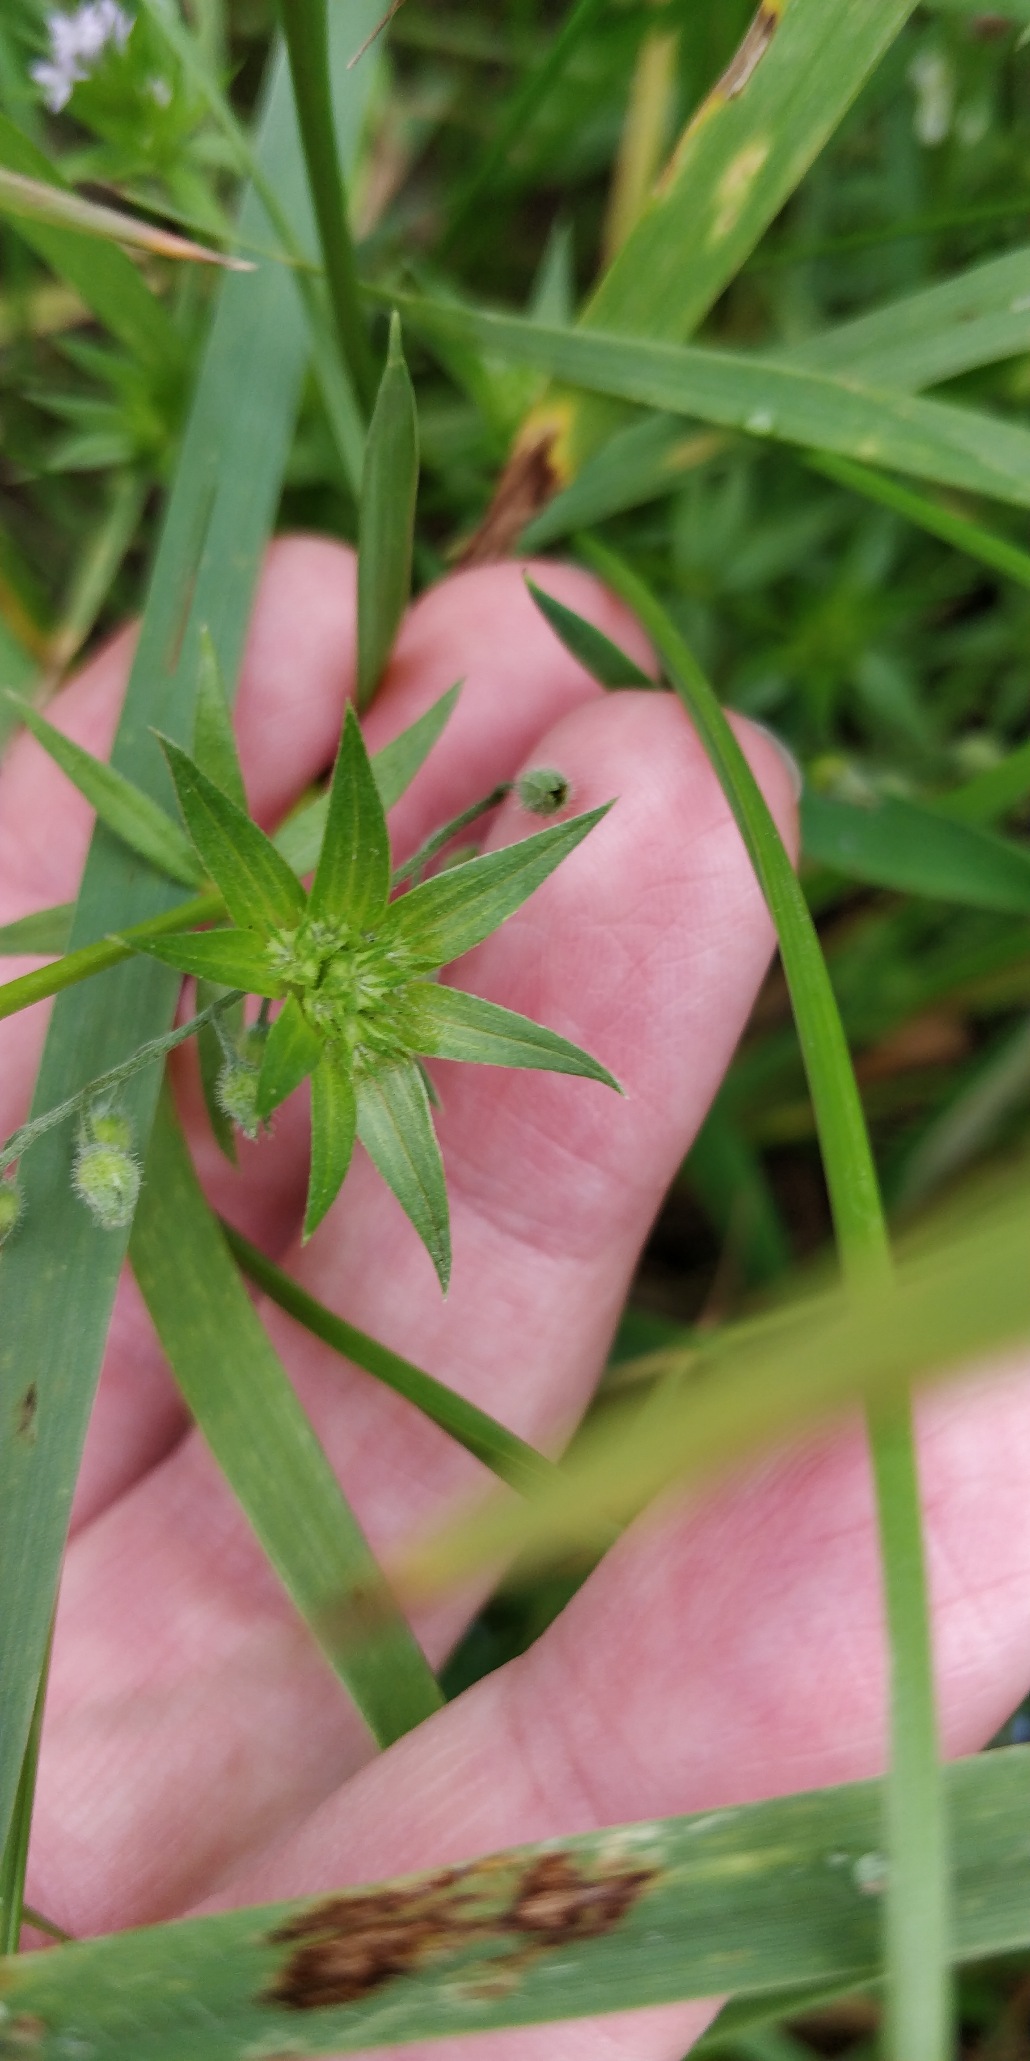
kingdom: Plantae
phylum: Tracheophyta
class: Magnoliopsida
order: Gentianales
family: Rubiaceae
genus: Sherardia
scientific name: Sherardia arvensis
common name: Blåstjerne
